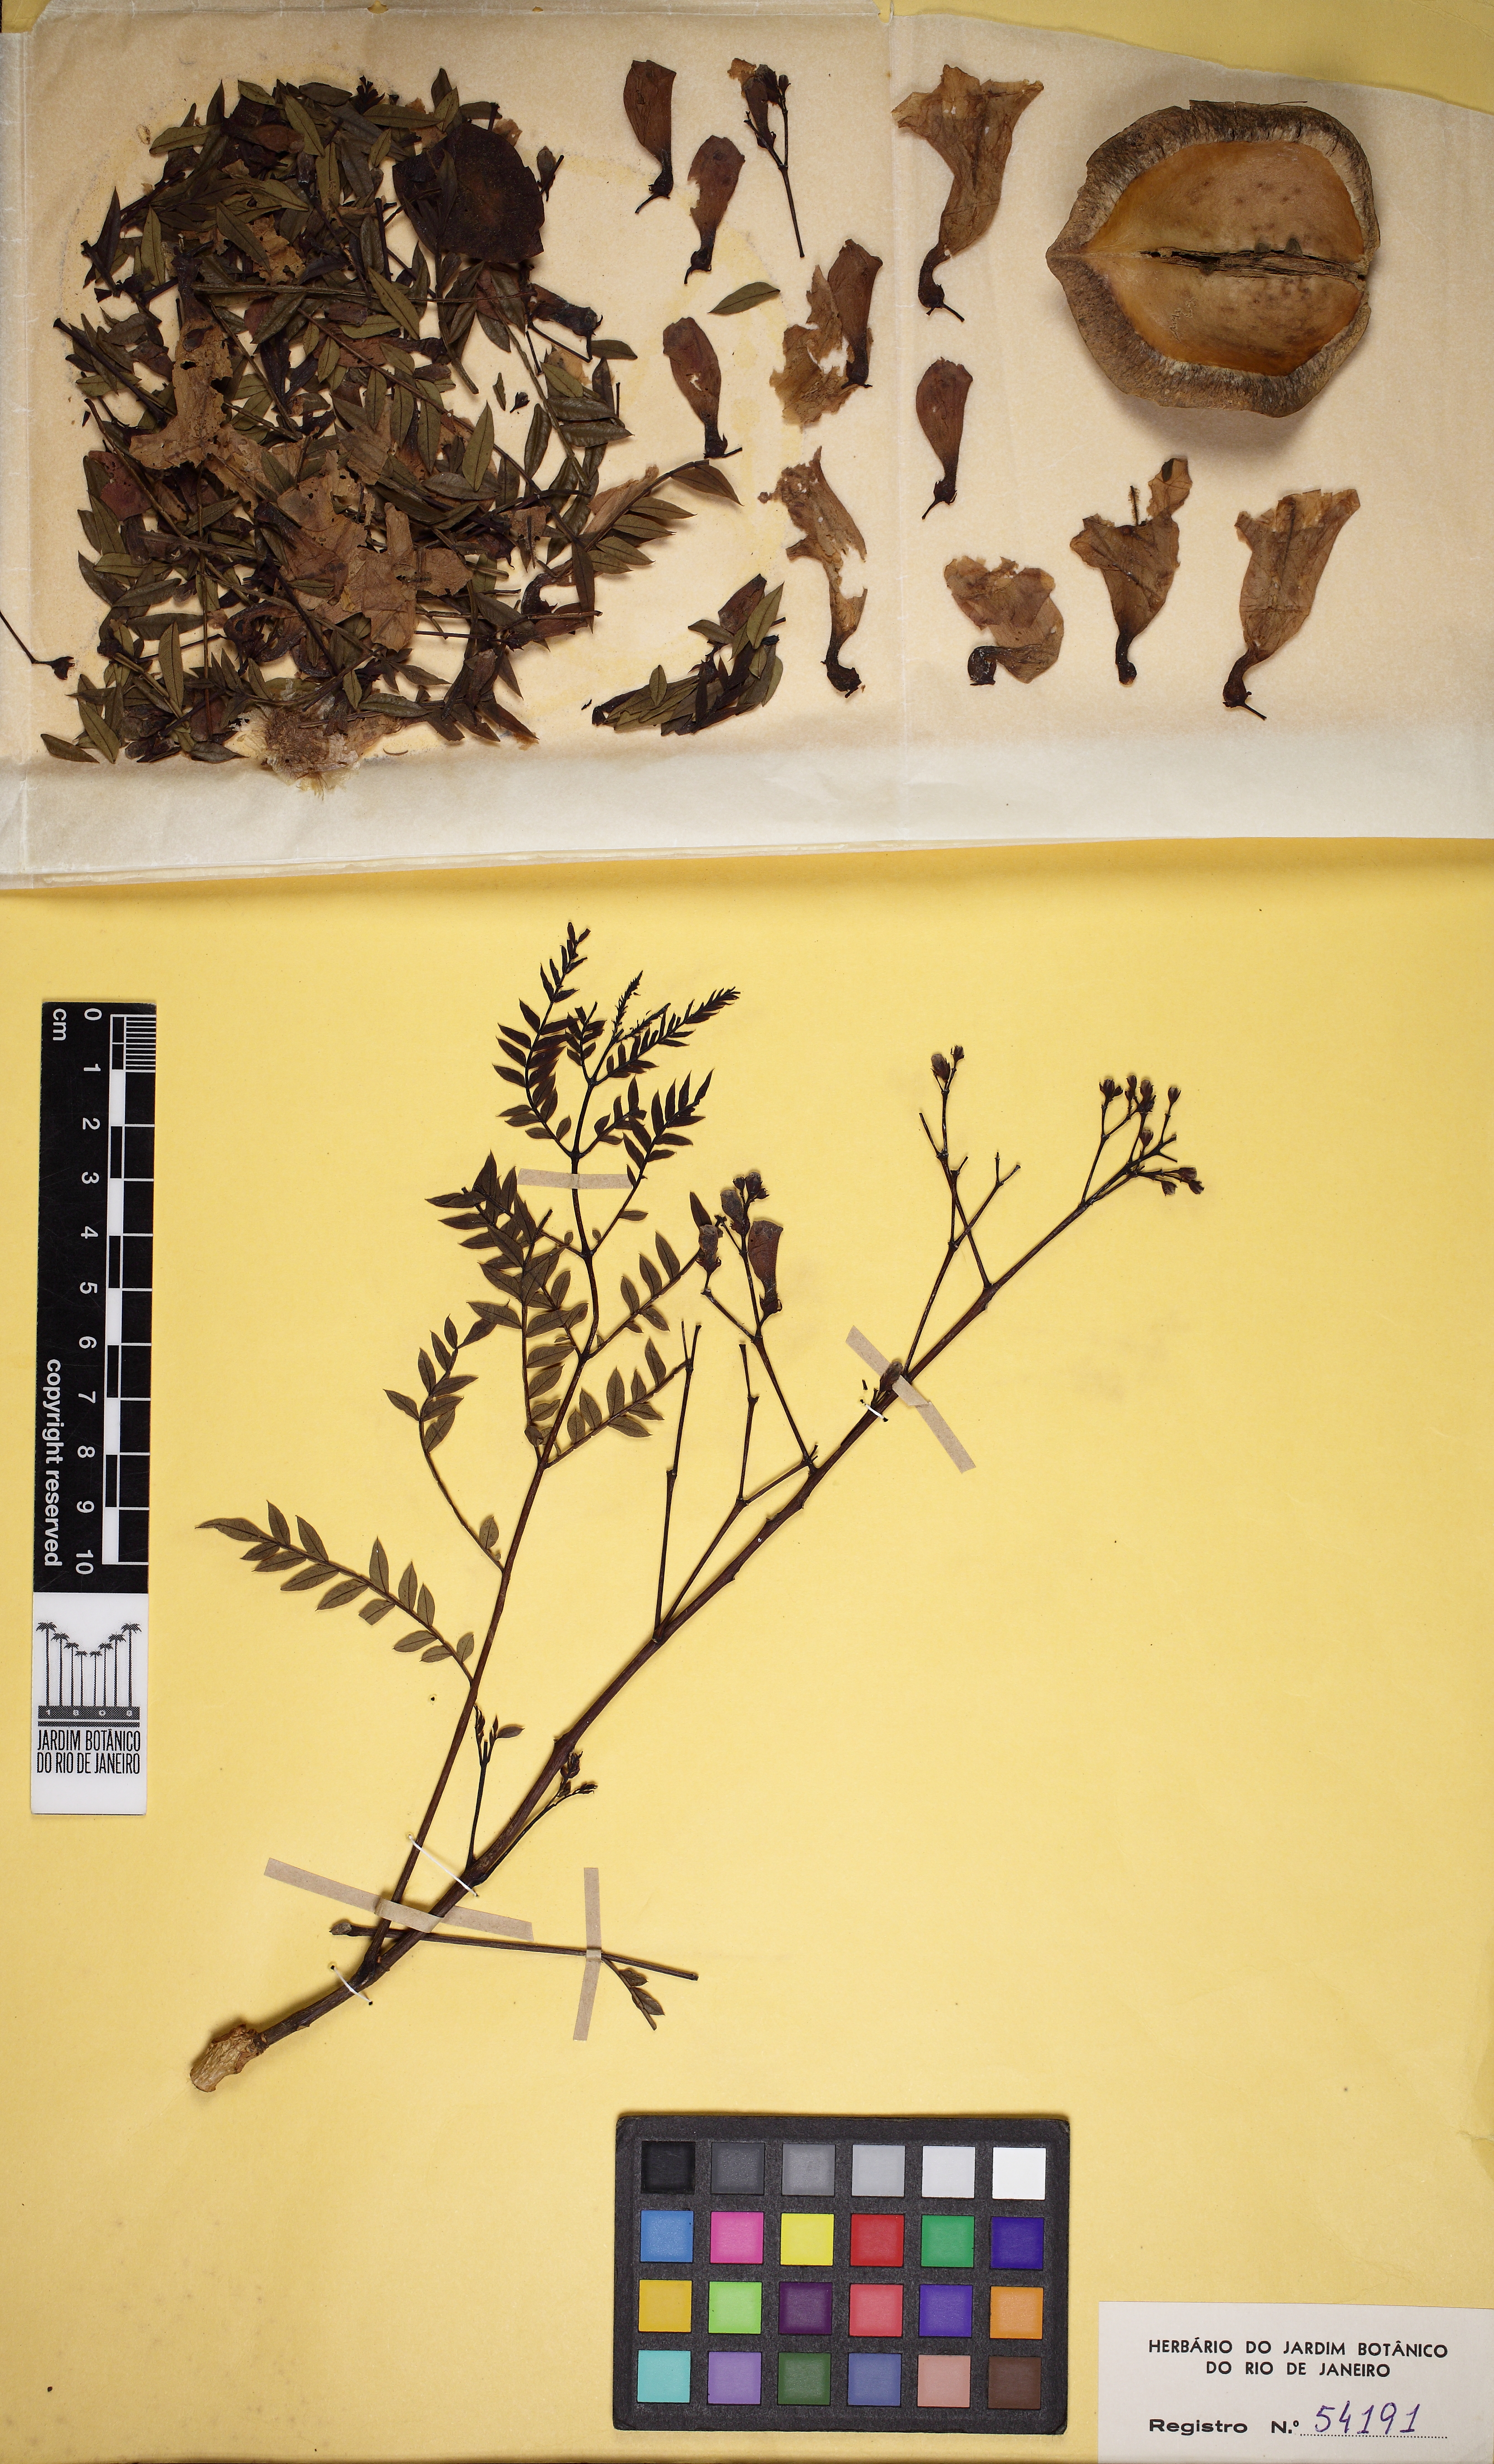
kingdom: Plantae
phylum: Tracheophyta
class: Magnoliopsida
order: Lamiales
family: Bignoniaceae
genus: Jacaranda
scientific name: Jacaranda cuspidifolia
